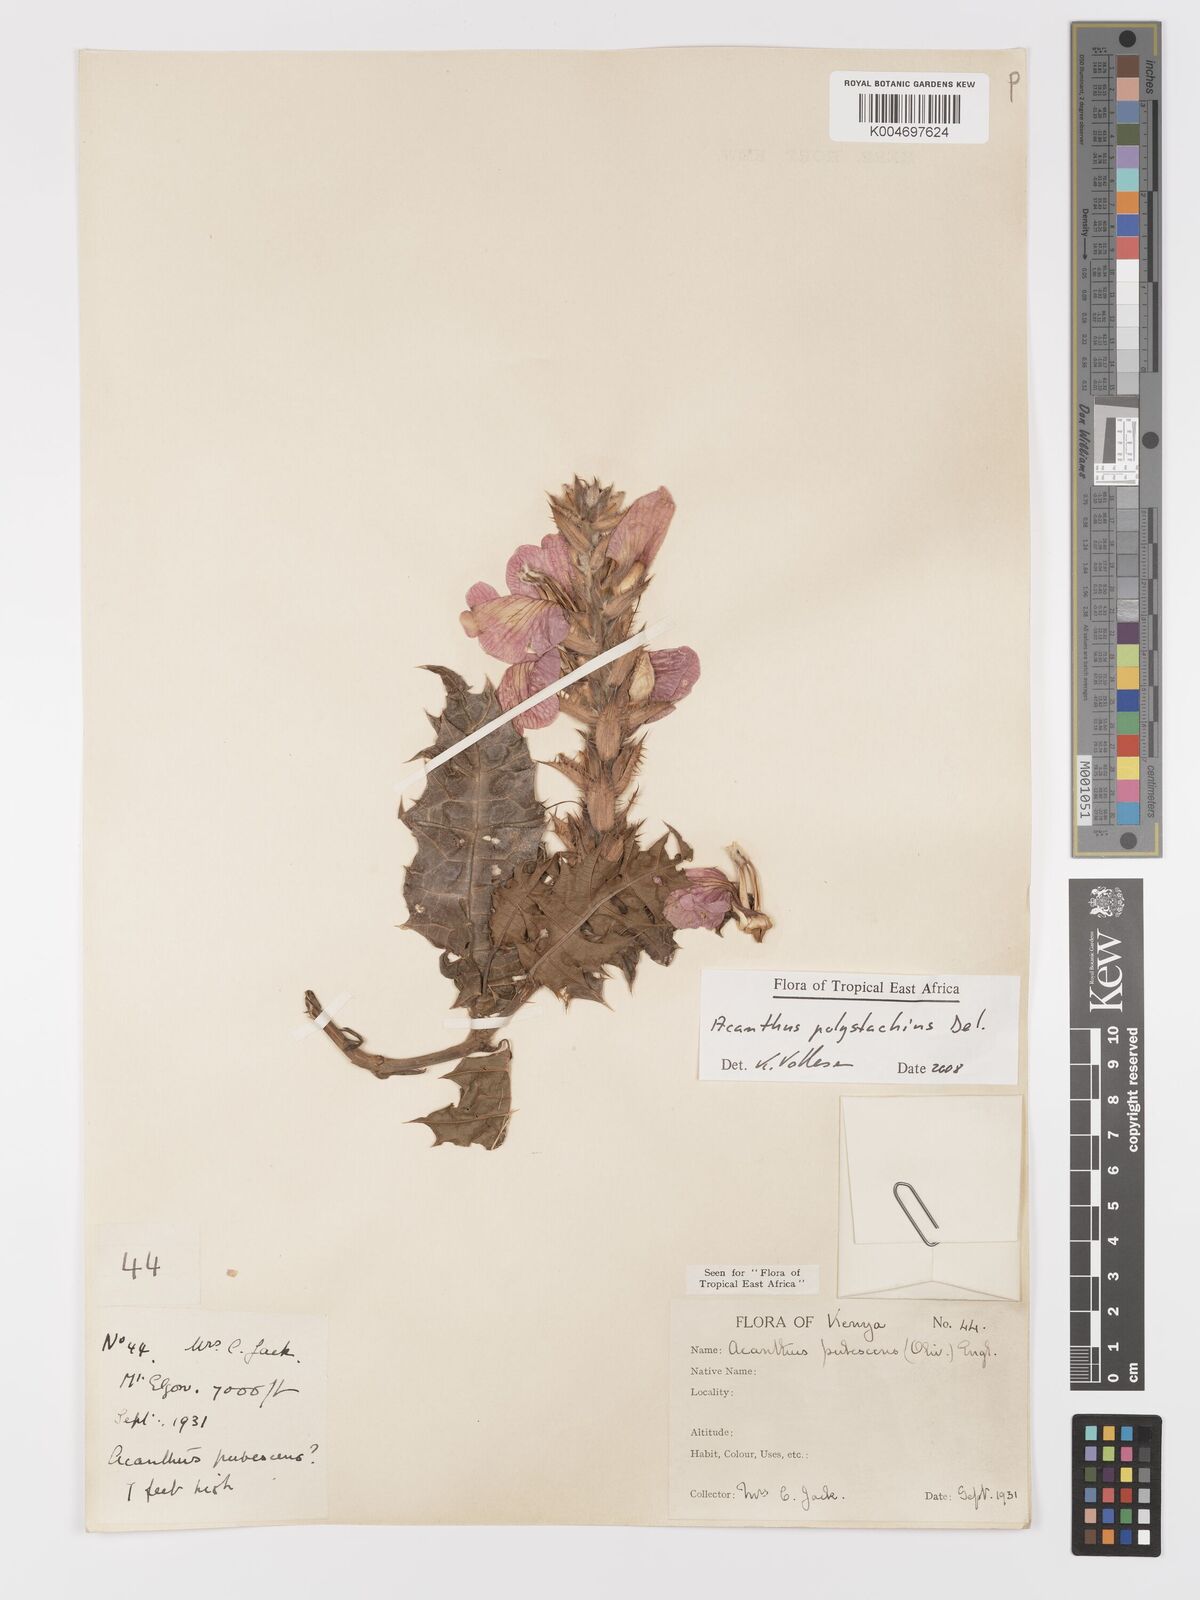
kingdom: Plantae
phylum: Tracheophyta
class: Magnoliopsida
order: Lamiales
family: Acanthaceae
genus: Acanthus
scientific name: Acanthus polystachyus
